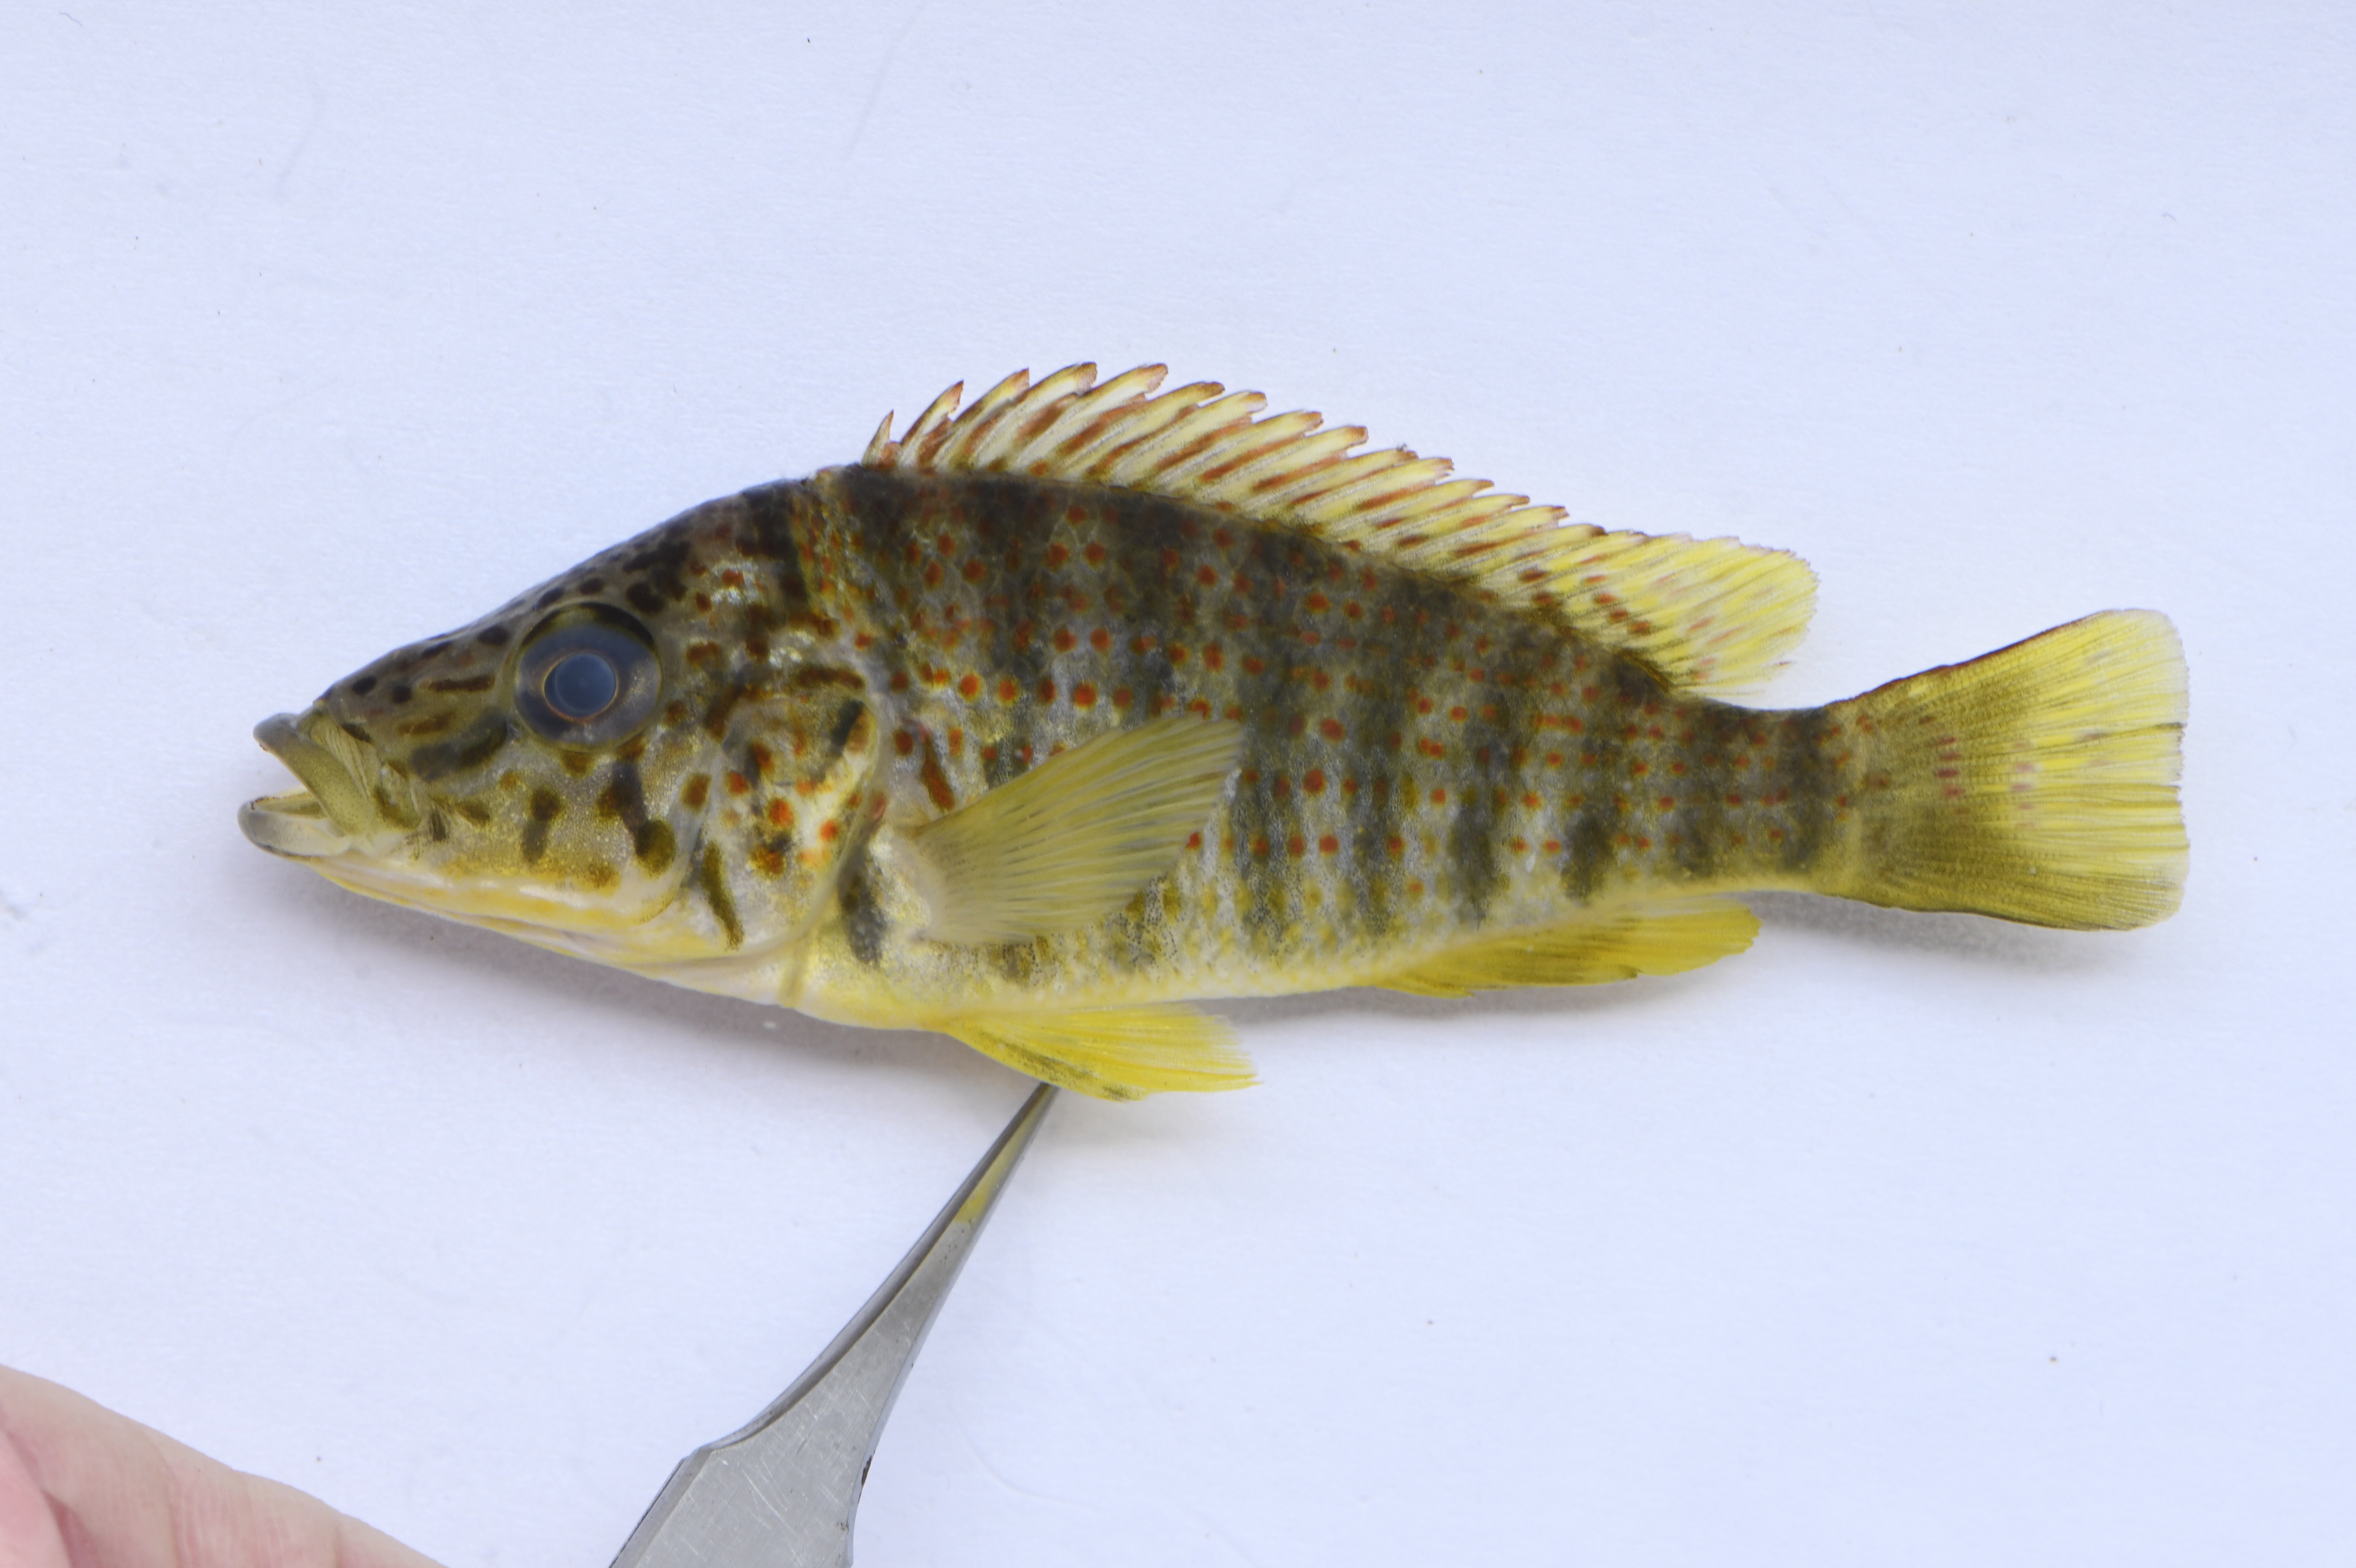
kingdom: Animalia
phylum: Chordata
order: Perciformes
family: Cichlidae
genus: Ctenochromis
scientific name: Ctenochromis horei
